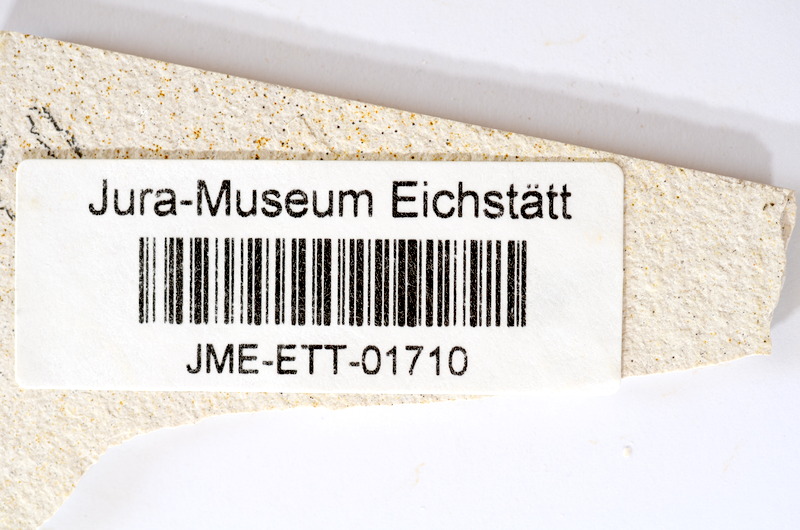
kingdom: Animalia
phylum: Chordata
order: Salmoniformes
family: Orthogonikleithridae
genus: Orthogonikleithrus
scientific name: Orthogonikleithrus hoelli
